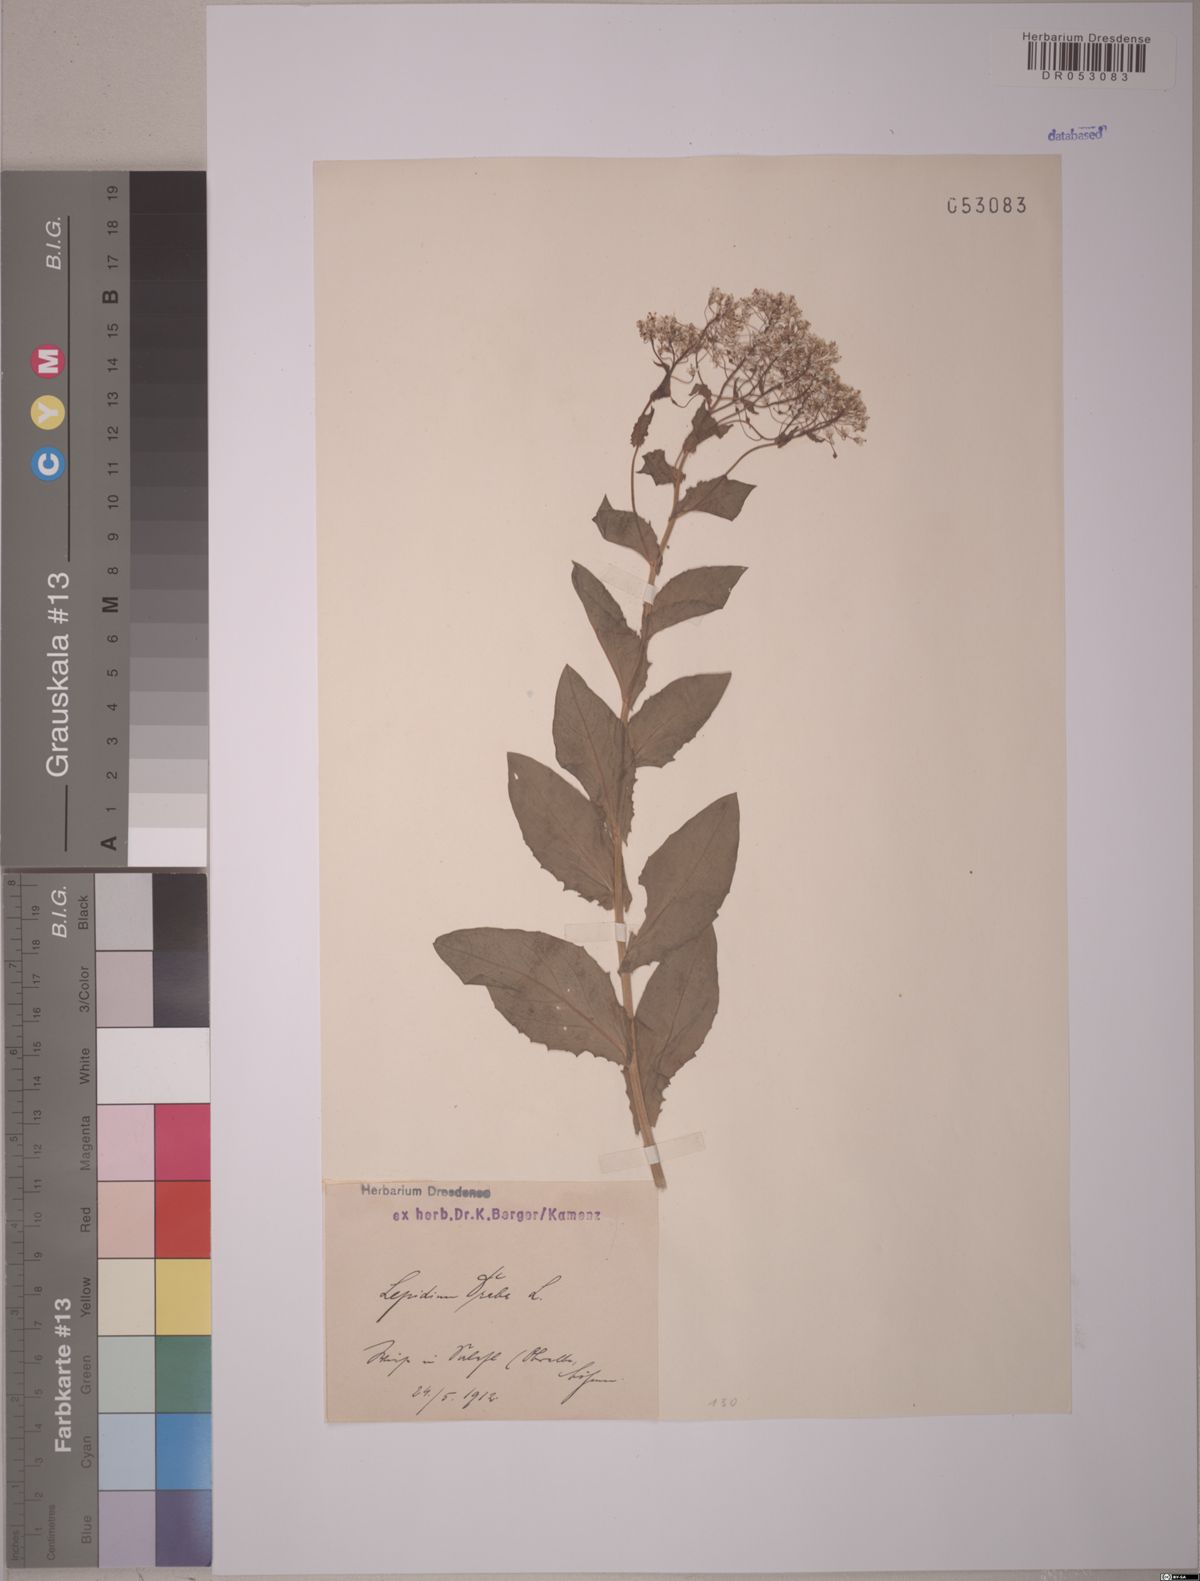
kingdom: Plantae
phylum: Tracheophyta
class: Magnoliopsida
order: Brassicales
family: Brassicaceae
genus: Lepidium
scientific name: Lepidium draba
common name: Hoary cress
